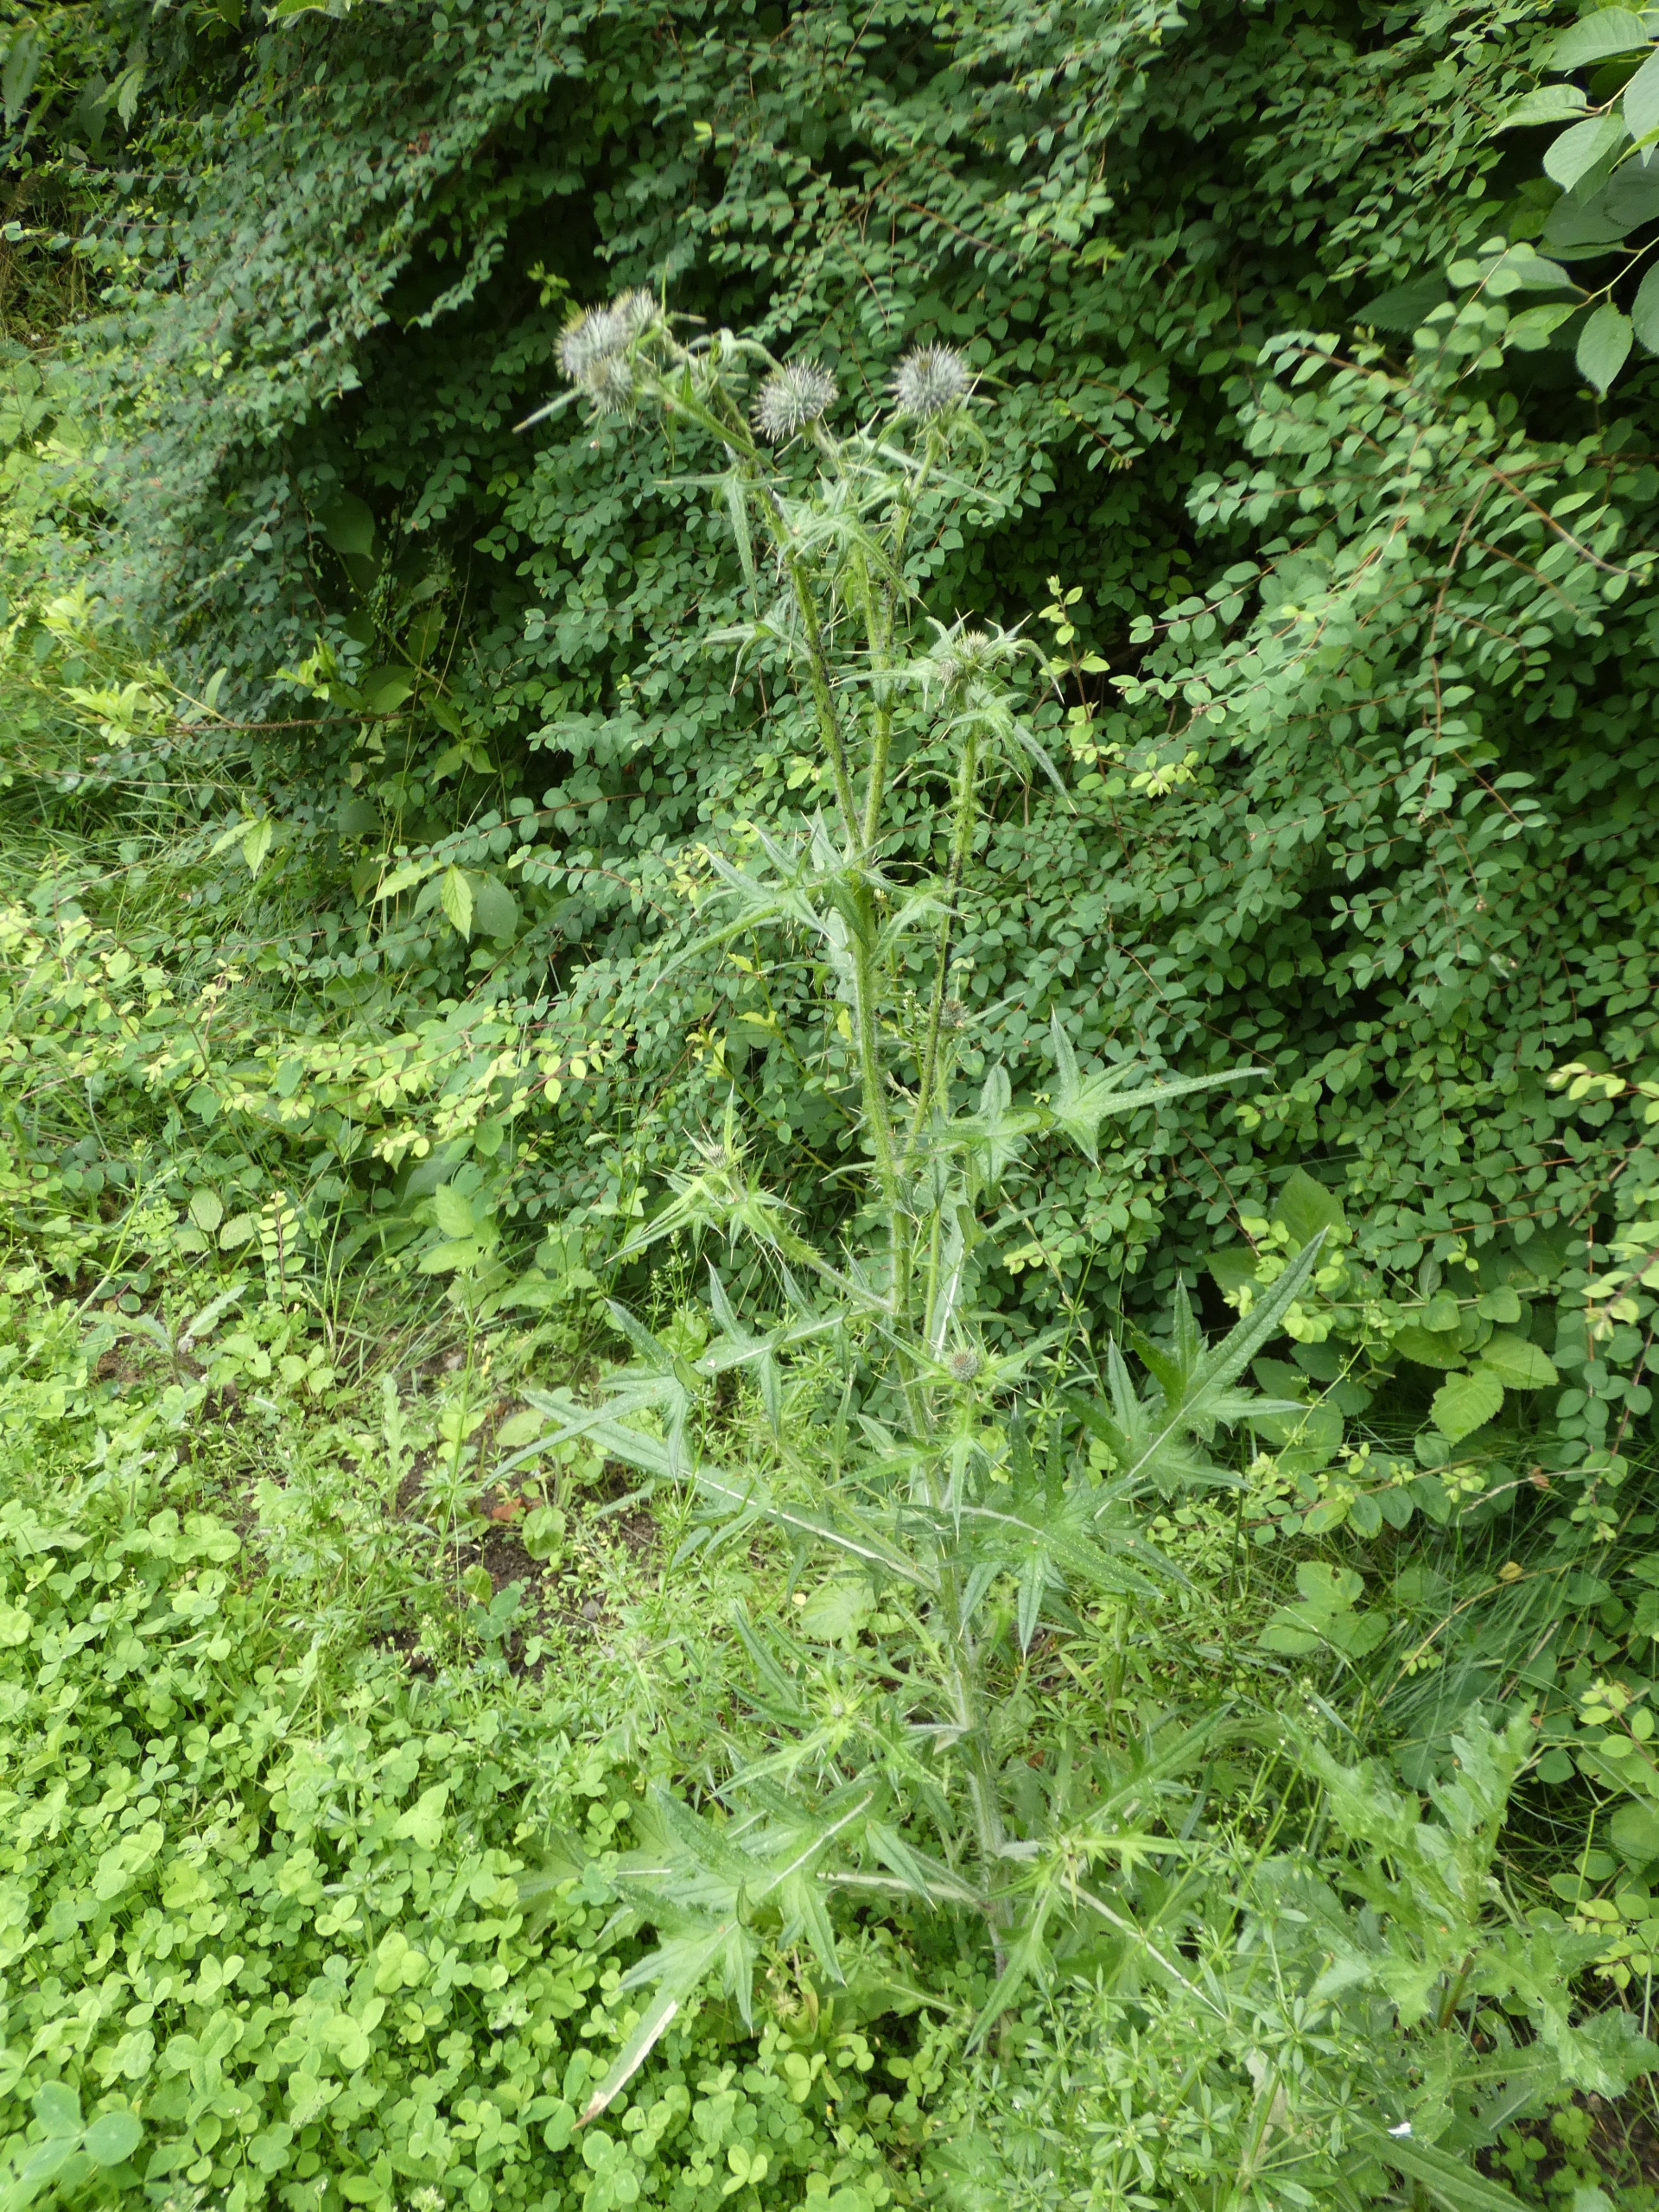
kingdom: Plantae
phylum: Tracheophyta
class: Magnoliopsida
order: Asterales
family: Asteraceae
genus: Cirsium
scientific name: Cirsium vulgare
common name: Horse-tidsel
